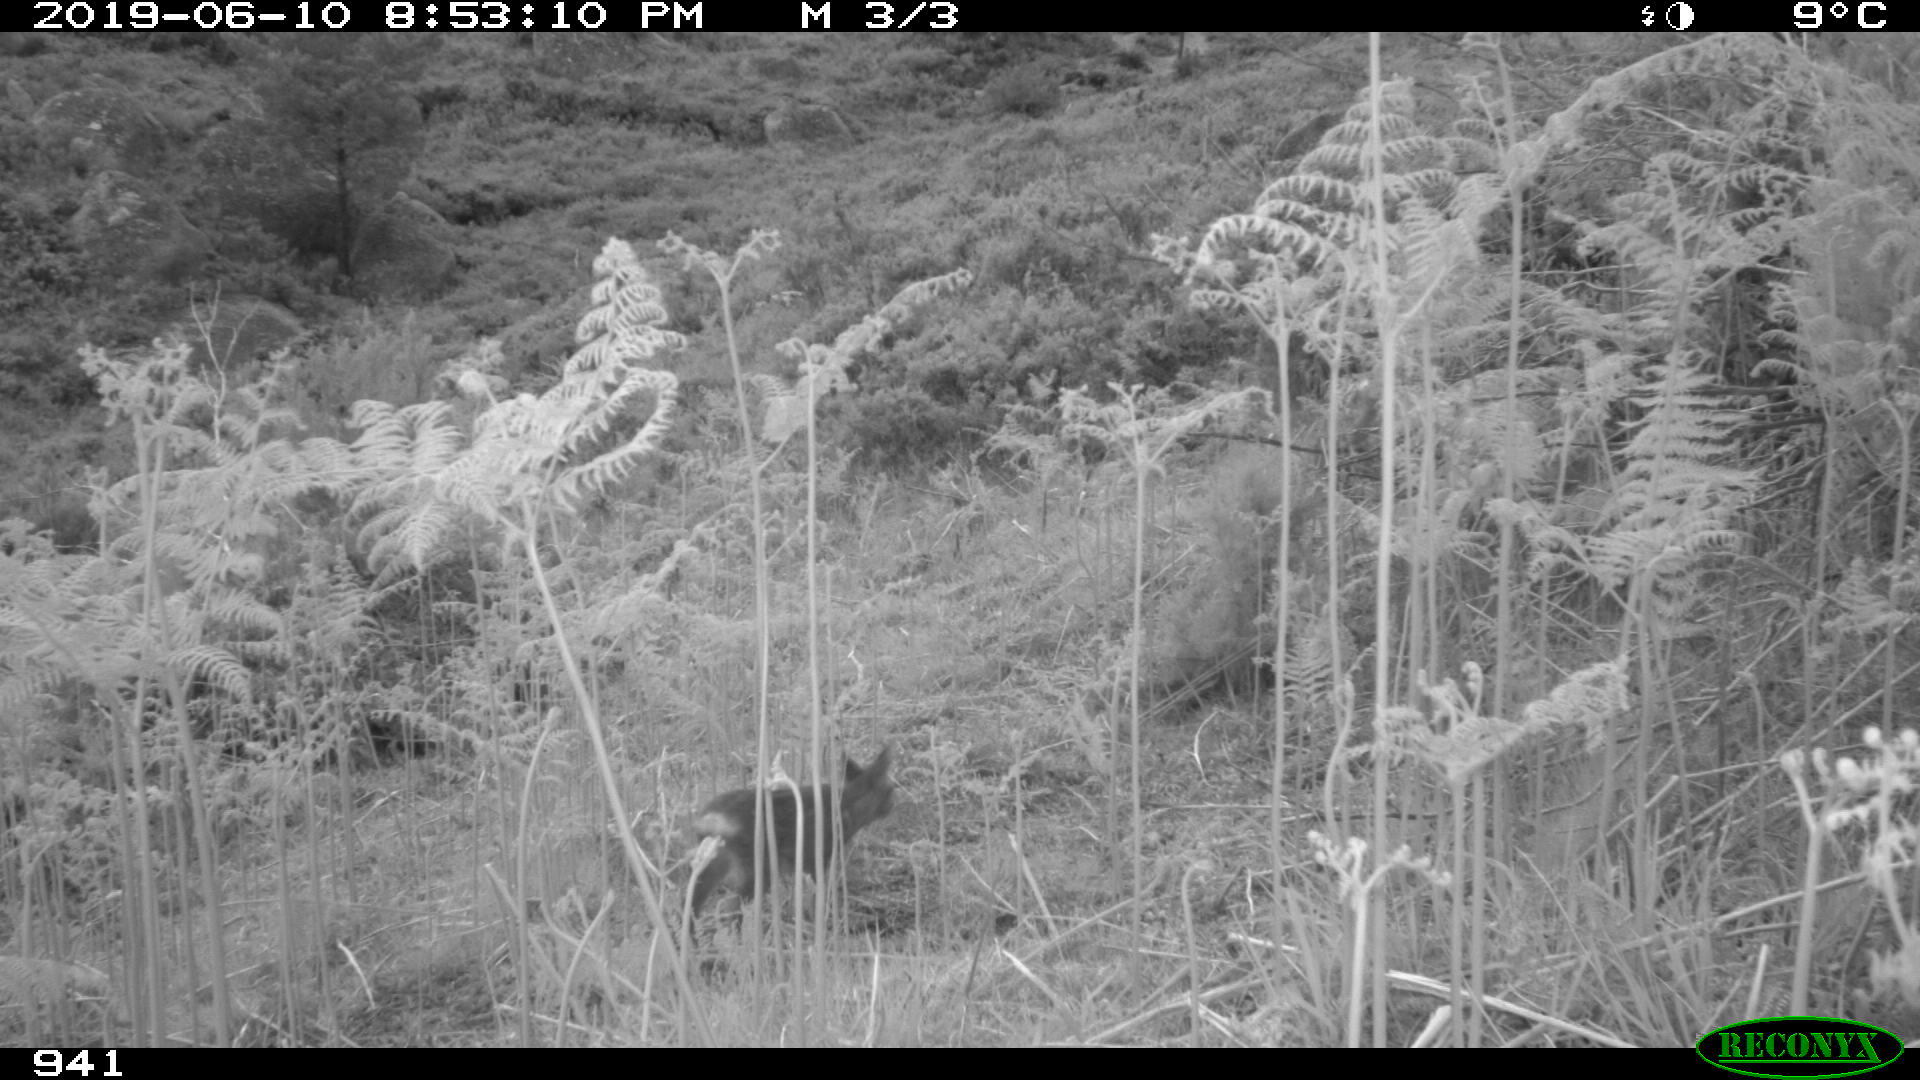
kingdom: Animalia
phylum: Chordata
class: Mammalia
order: Artiodactyla
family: Cervidae
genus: Capreolus
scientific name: Capreolus capreolus
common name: Western roe deer
